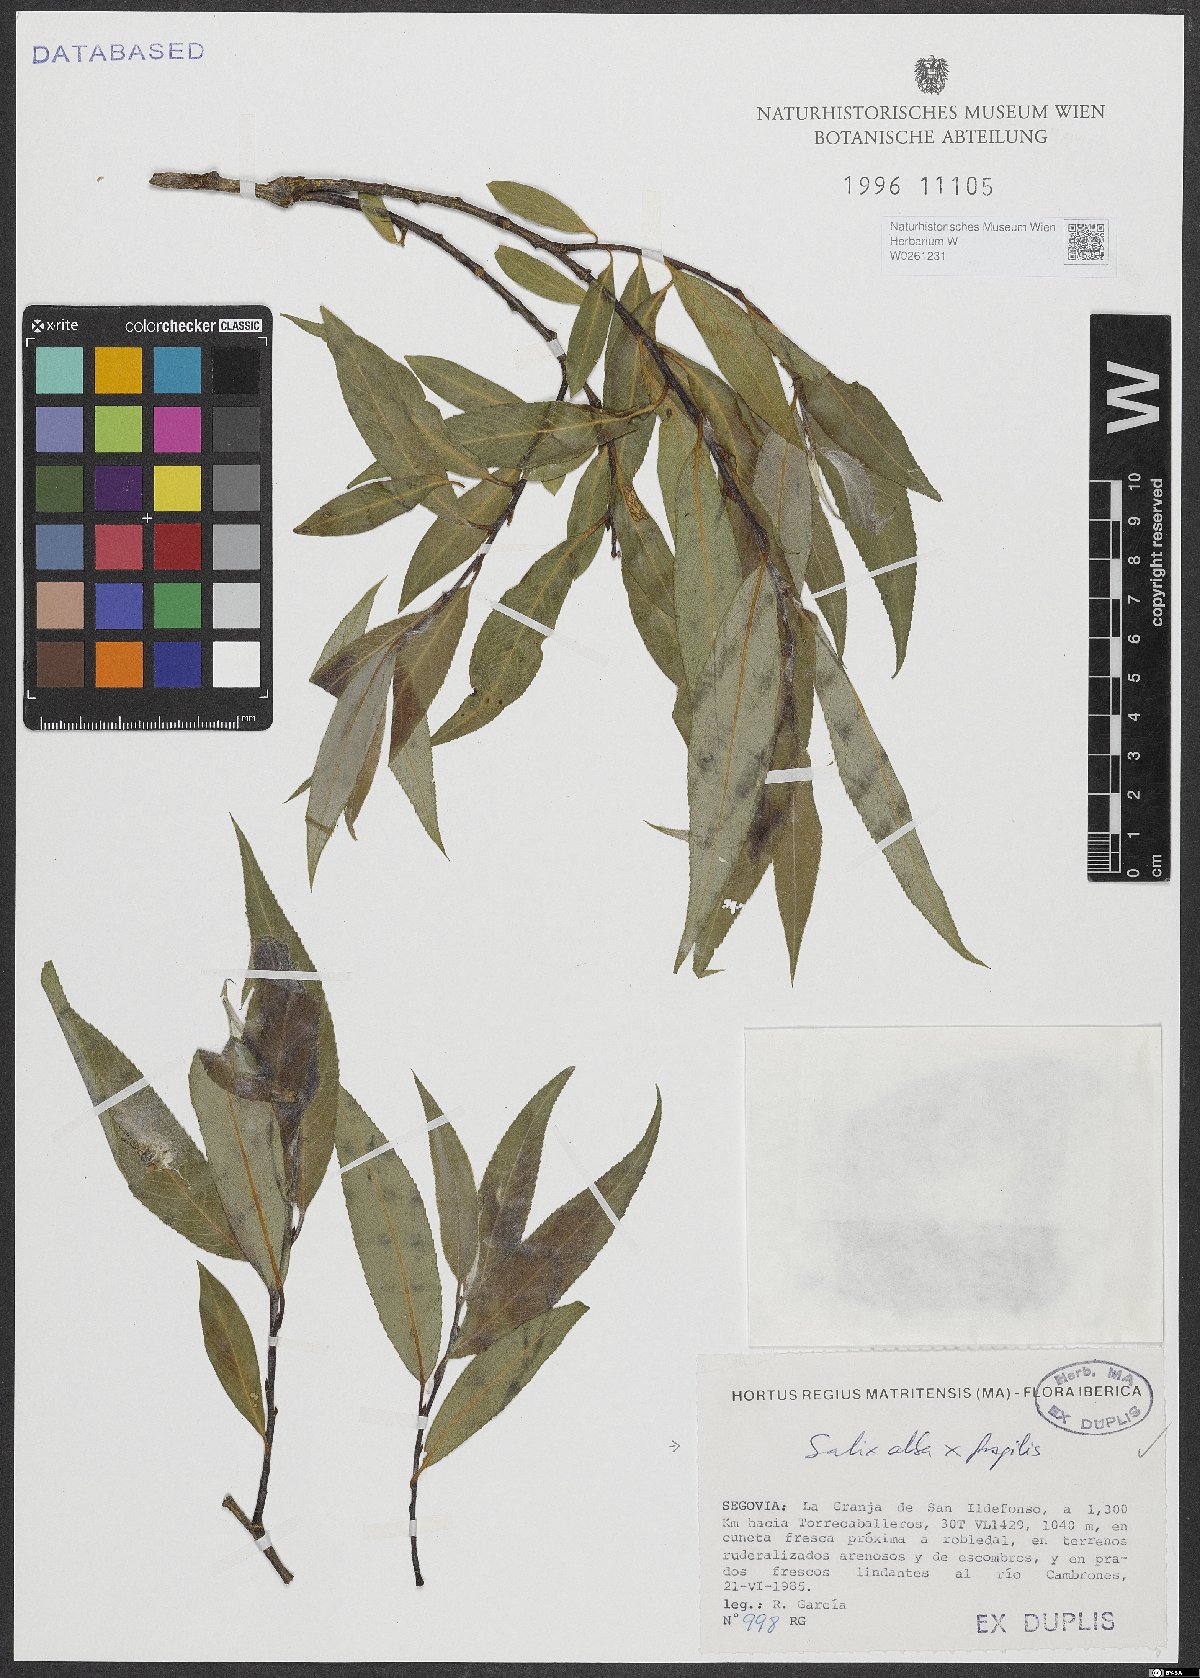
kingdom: Plantae
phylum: Tracheophyta
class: Magnoliopsida
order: Malpighiales
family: Salicaceae
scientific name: Salicaceae
